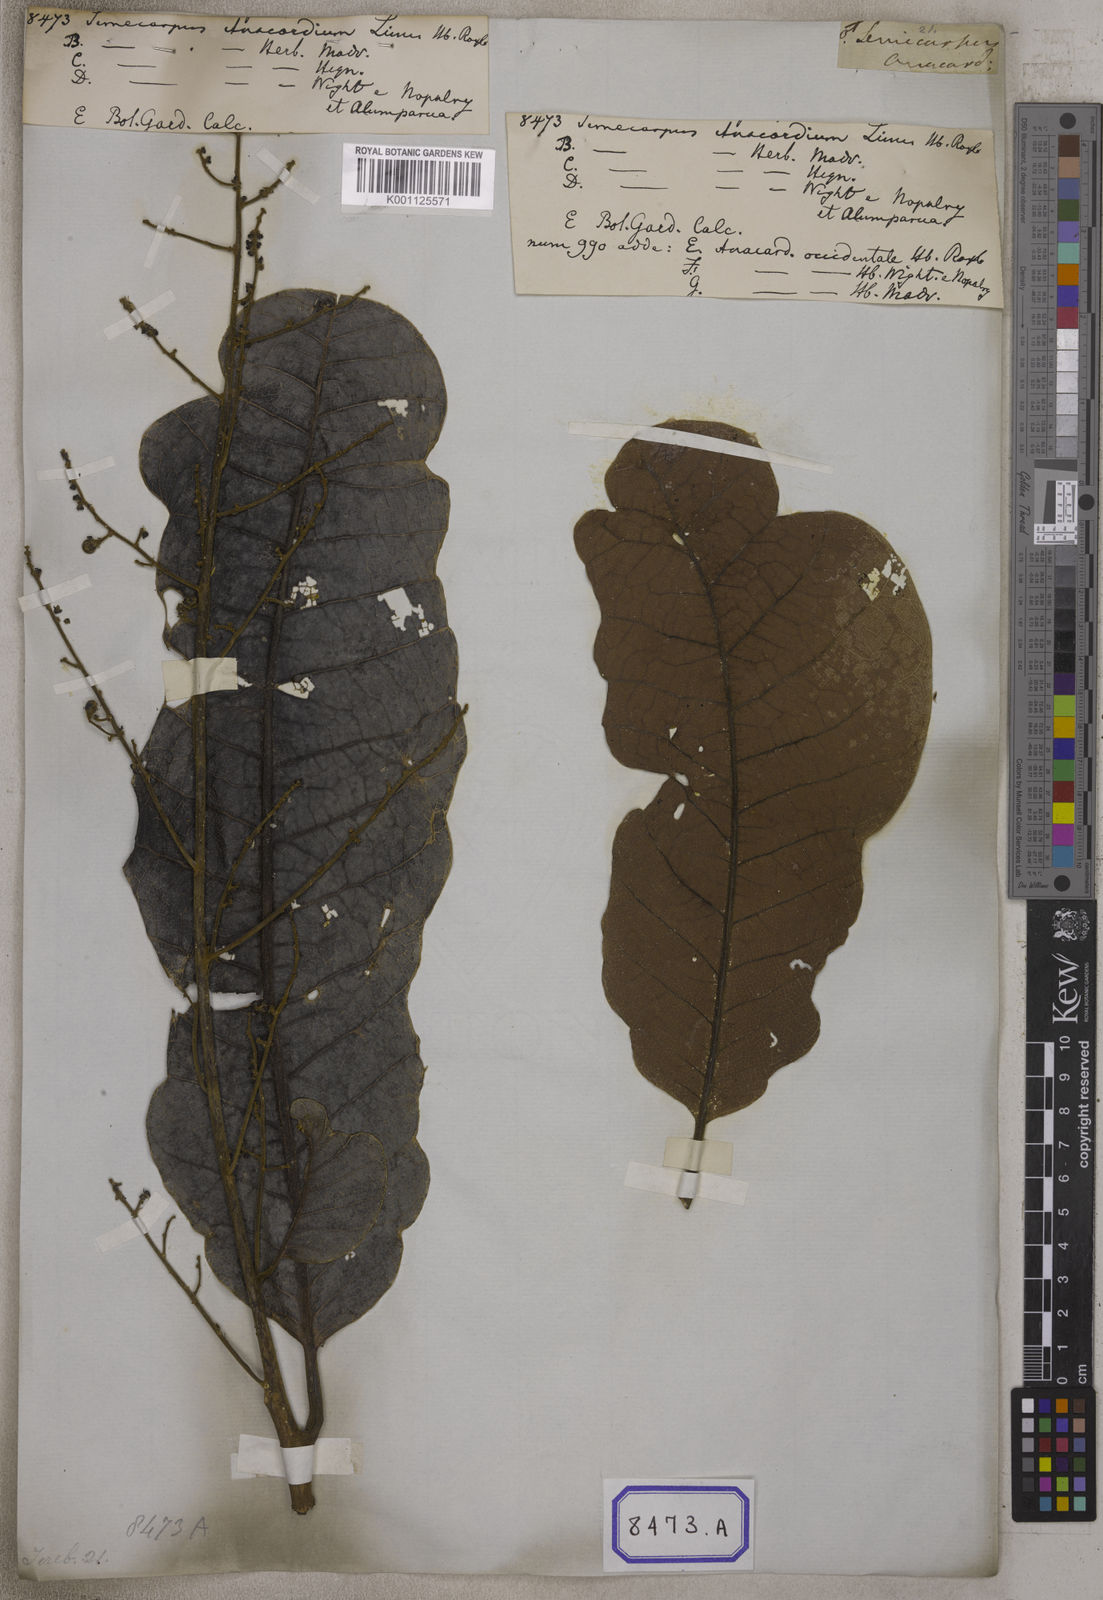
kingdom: Plantae
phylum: Tracheophyta
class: Magnoliopsida
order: Sapindales
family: Anacardiaceae
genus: Semecarpus
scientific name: Semecarpus anacardium
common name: Marking nut-tree
